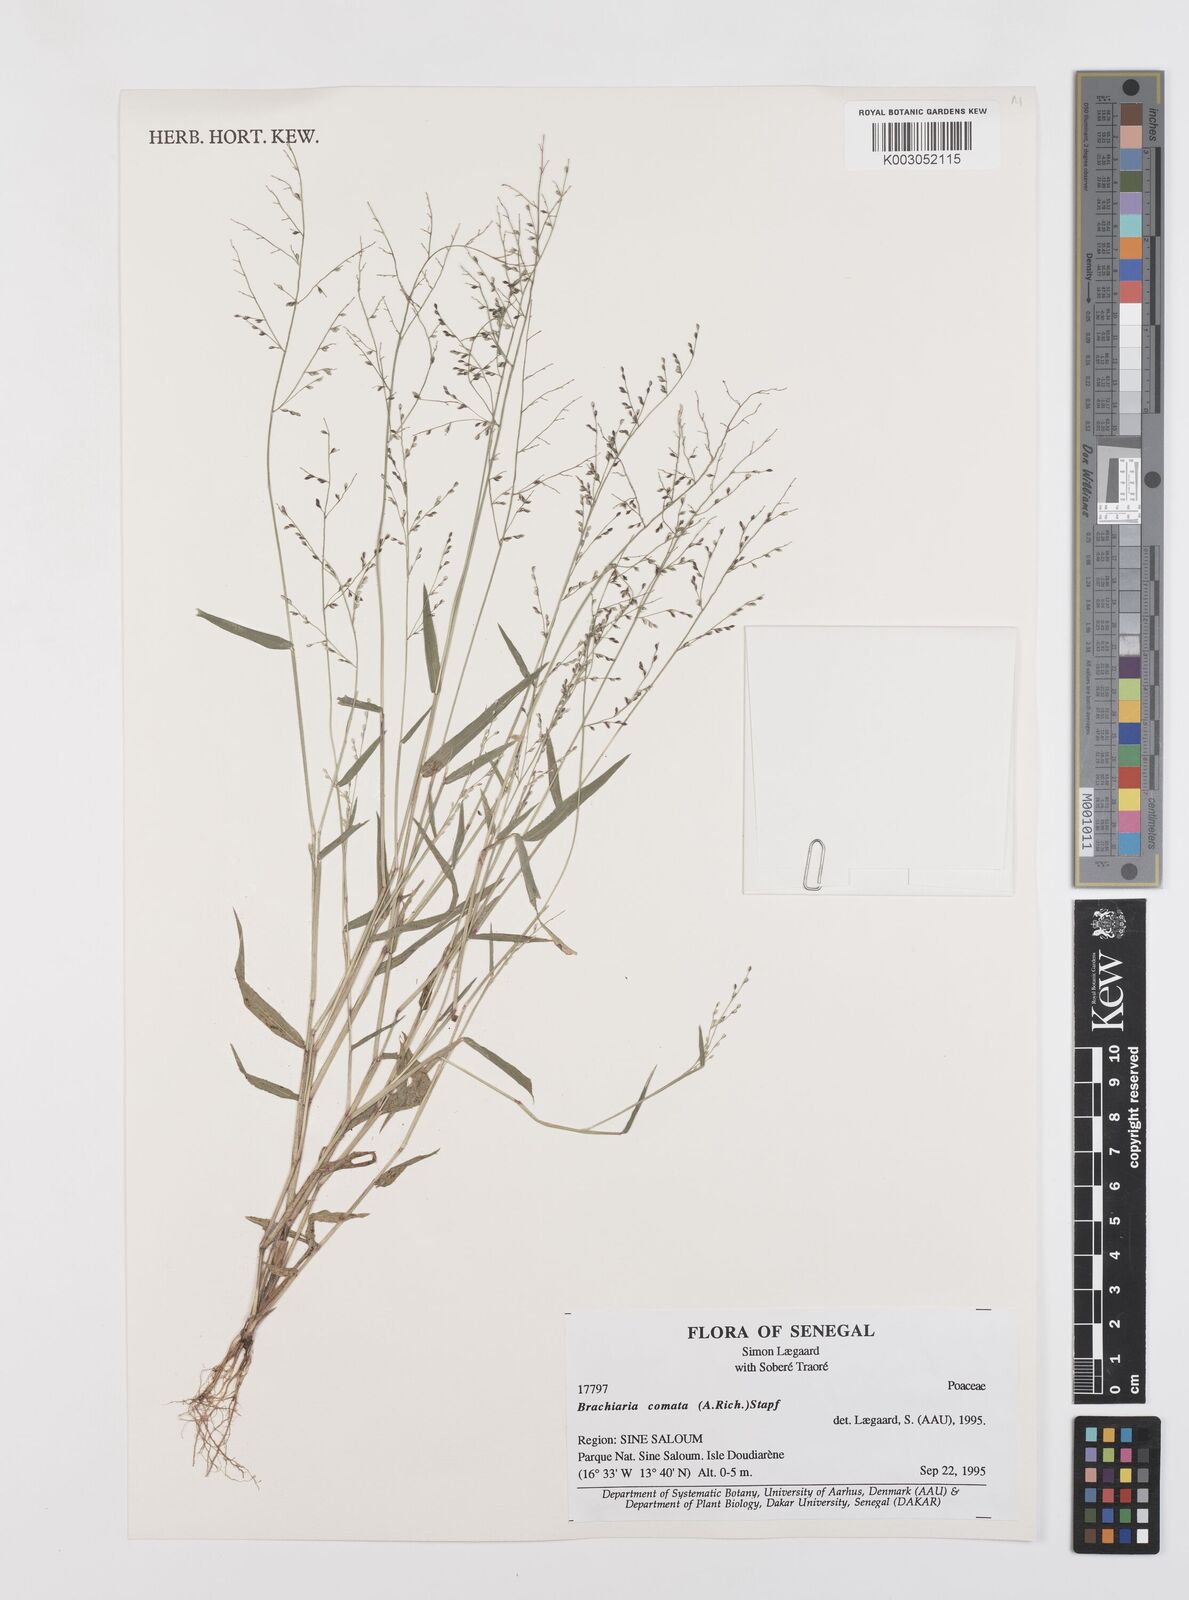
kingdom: Plantae
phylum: Tracheophyta
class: Liliopsida
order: Poales
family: Poaceae
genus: Urochloa
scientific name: Urochloa comata
